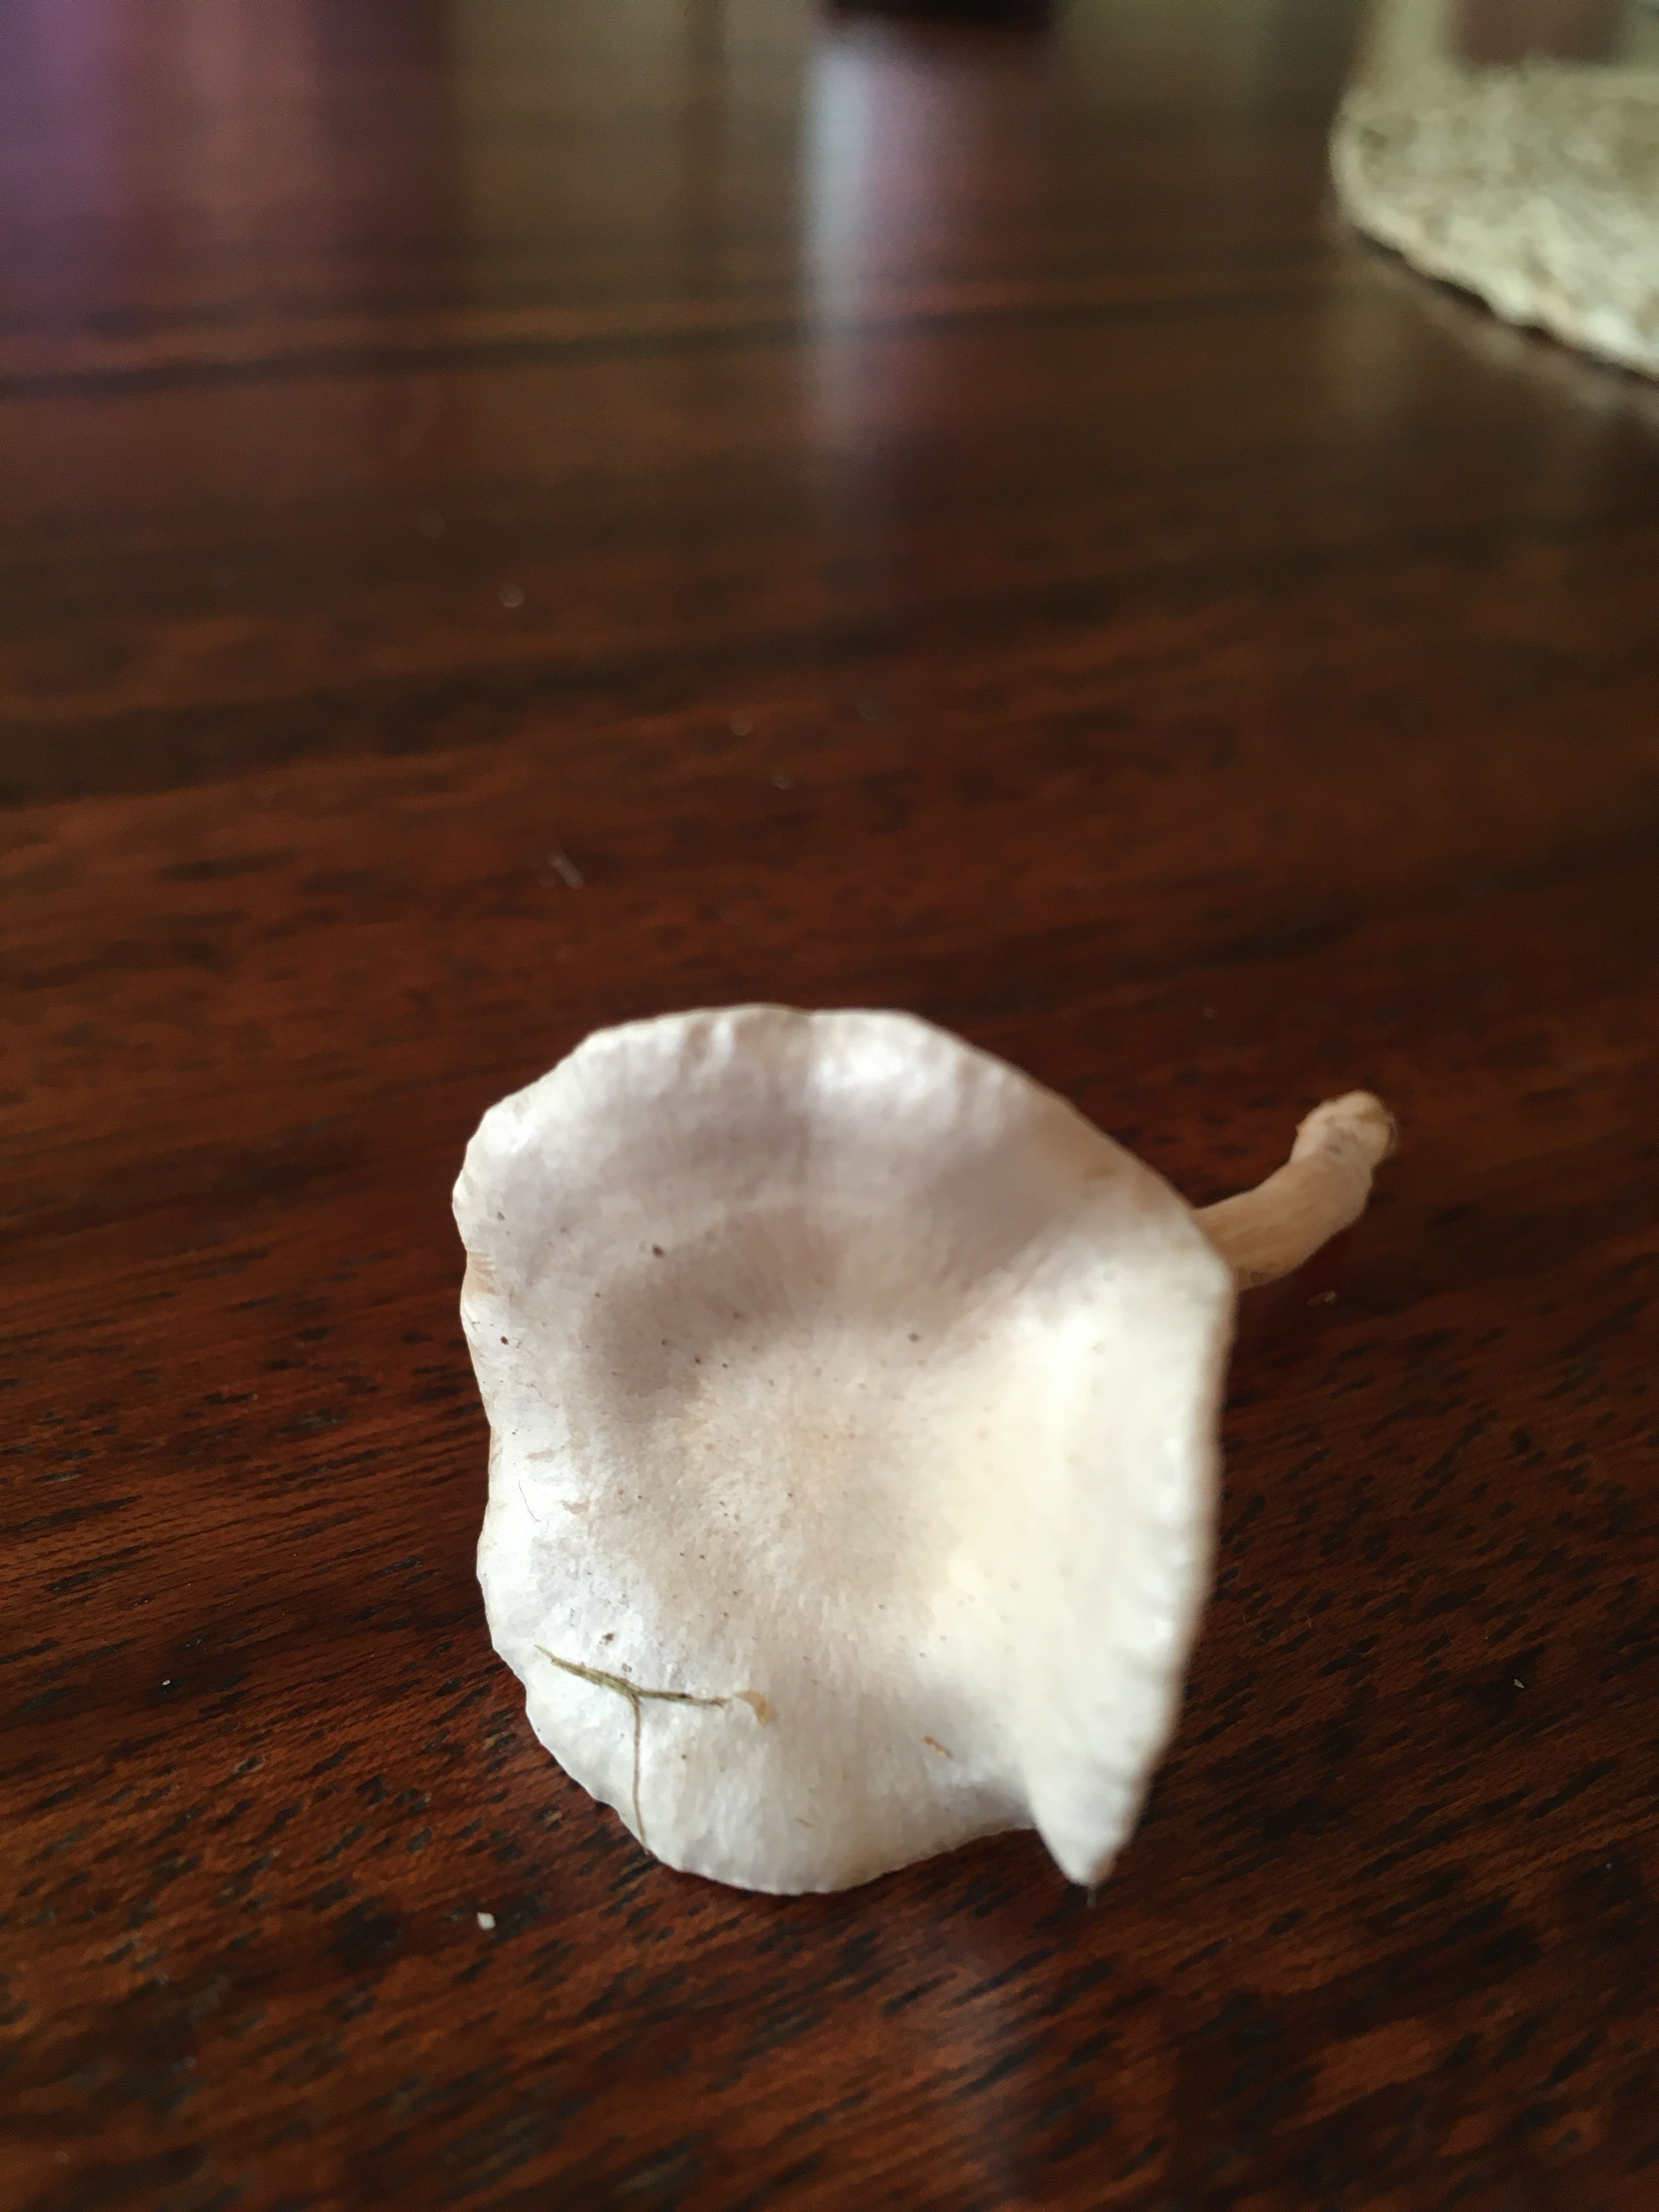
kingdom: Fungi
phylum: Basidiomycota
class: Agaricomycetes
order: Agaricales
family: Tricholomataceae
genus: Clitocybe
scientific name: Clitocybe
